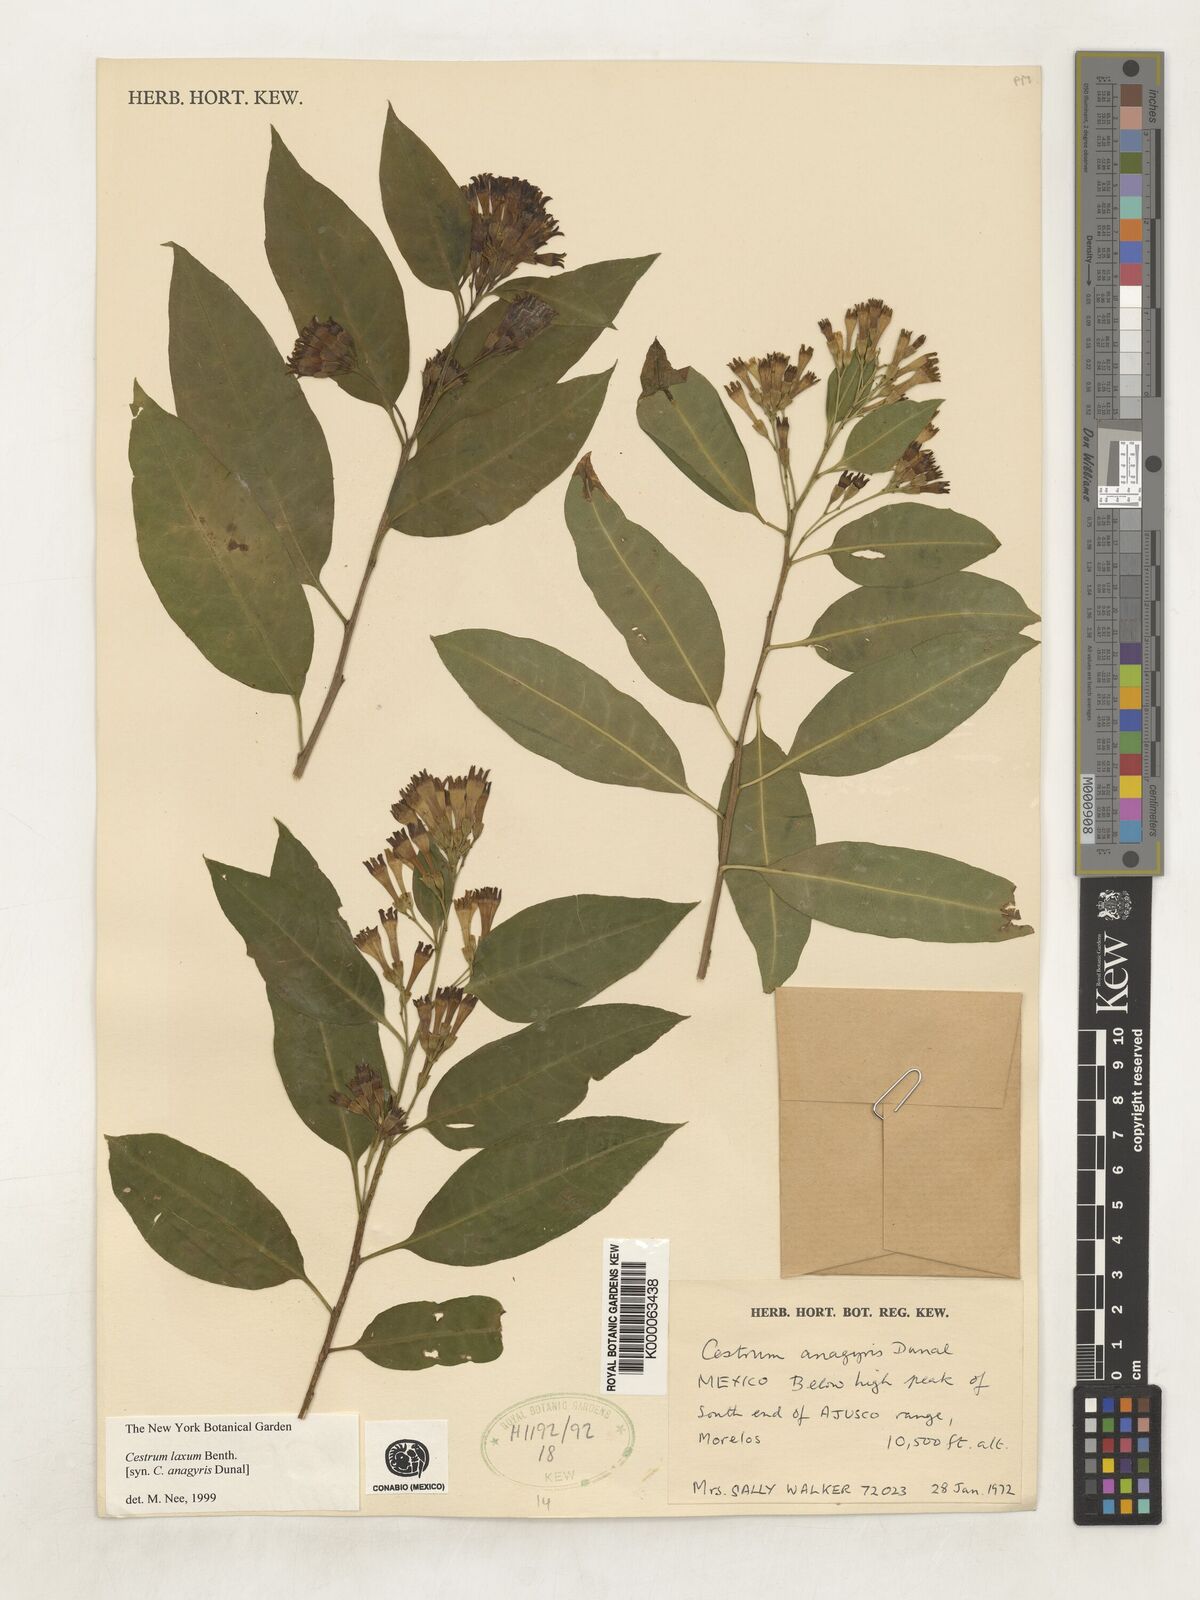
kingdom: Plantae
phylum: Tracheophyta
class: Magnoliopsida
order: Solanales
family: Solanaceae
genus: Cestrum
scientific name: Cestrum laxum
